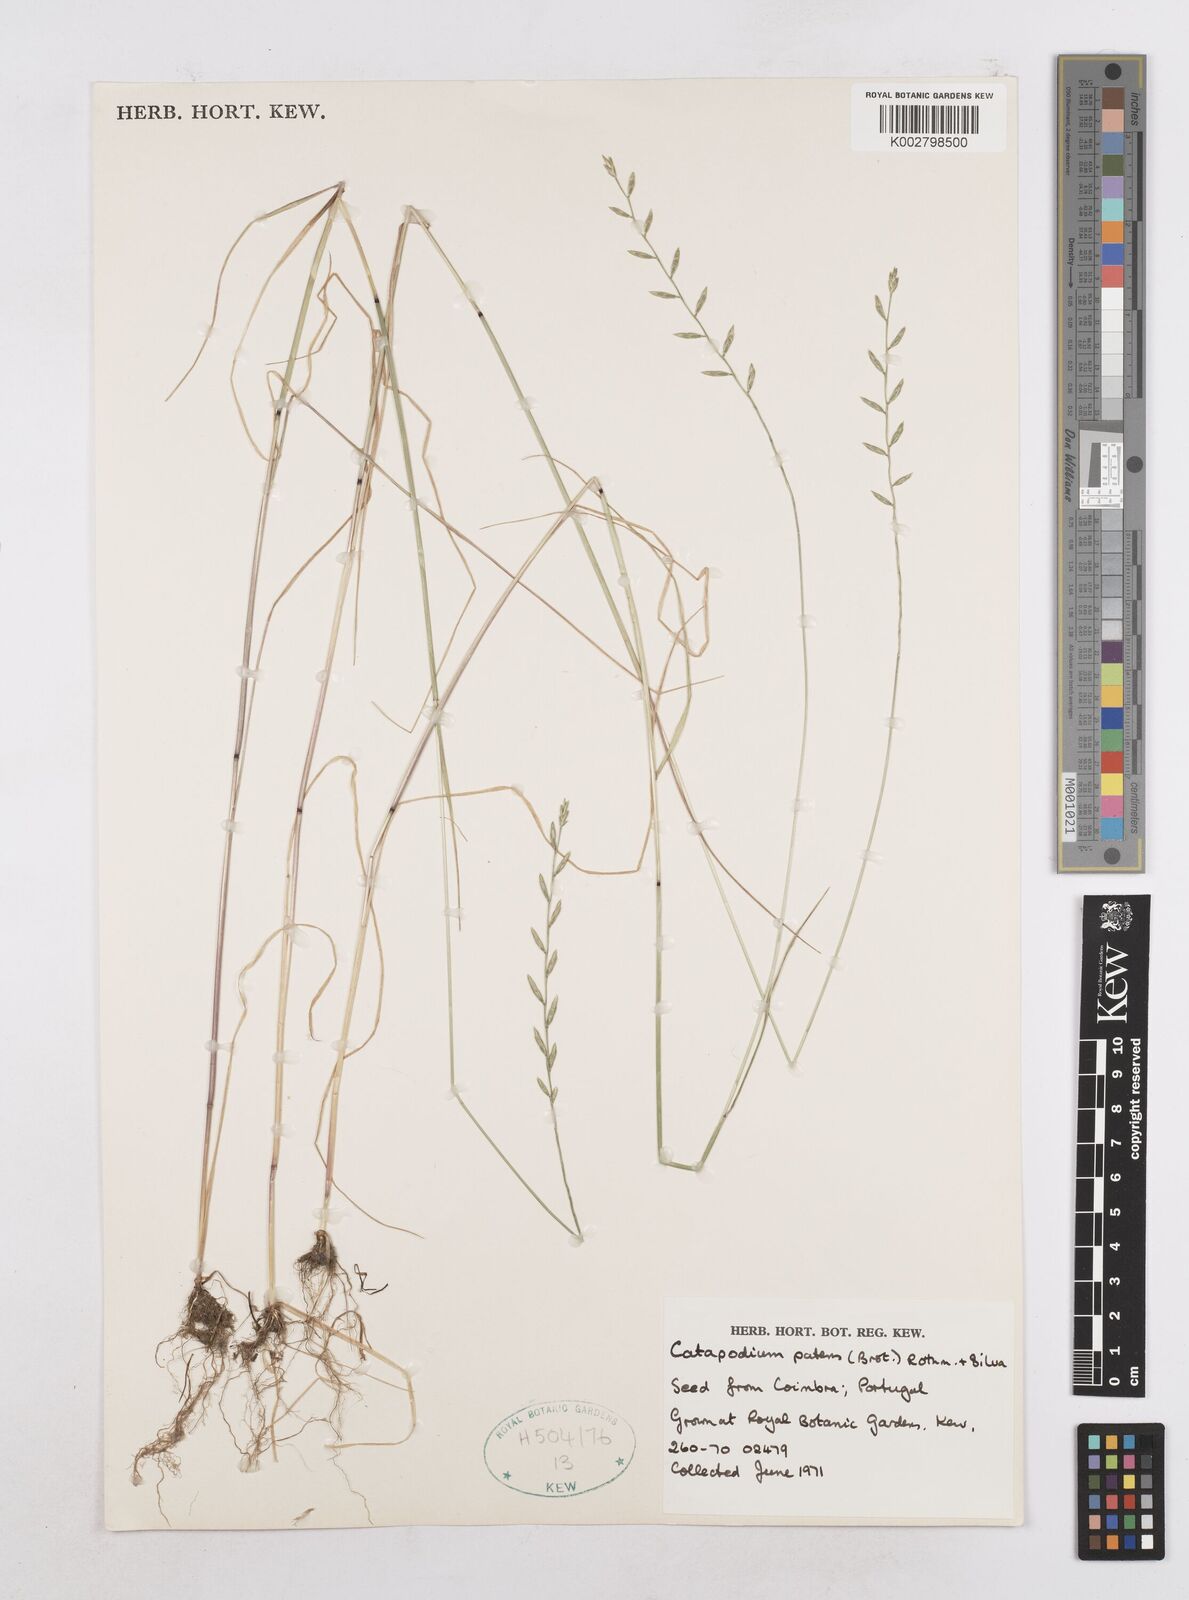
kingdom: Plantae
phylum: Tracheophyta
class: Liliopsida
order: Poales
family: Poaceae
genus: Festuca
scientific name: Festuca Micropyrum patens
